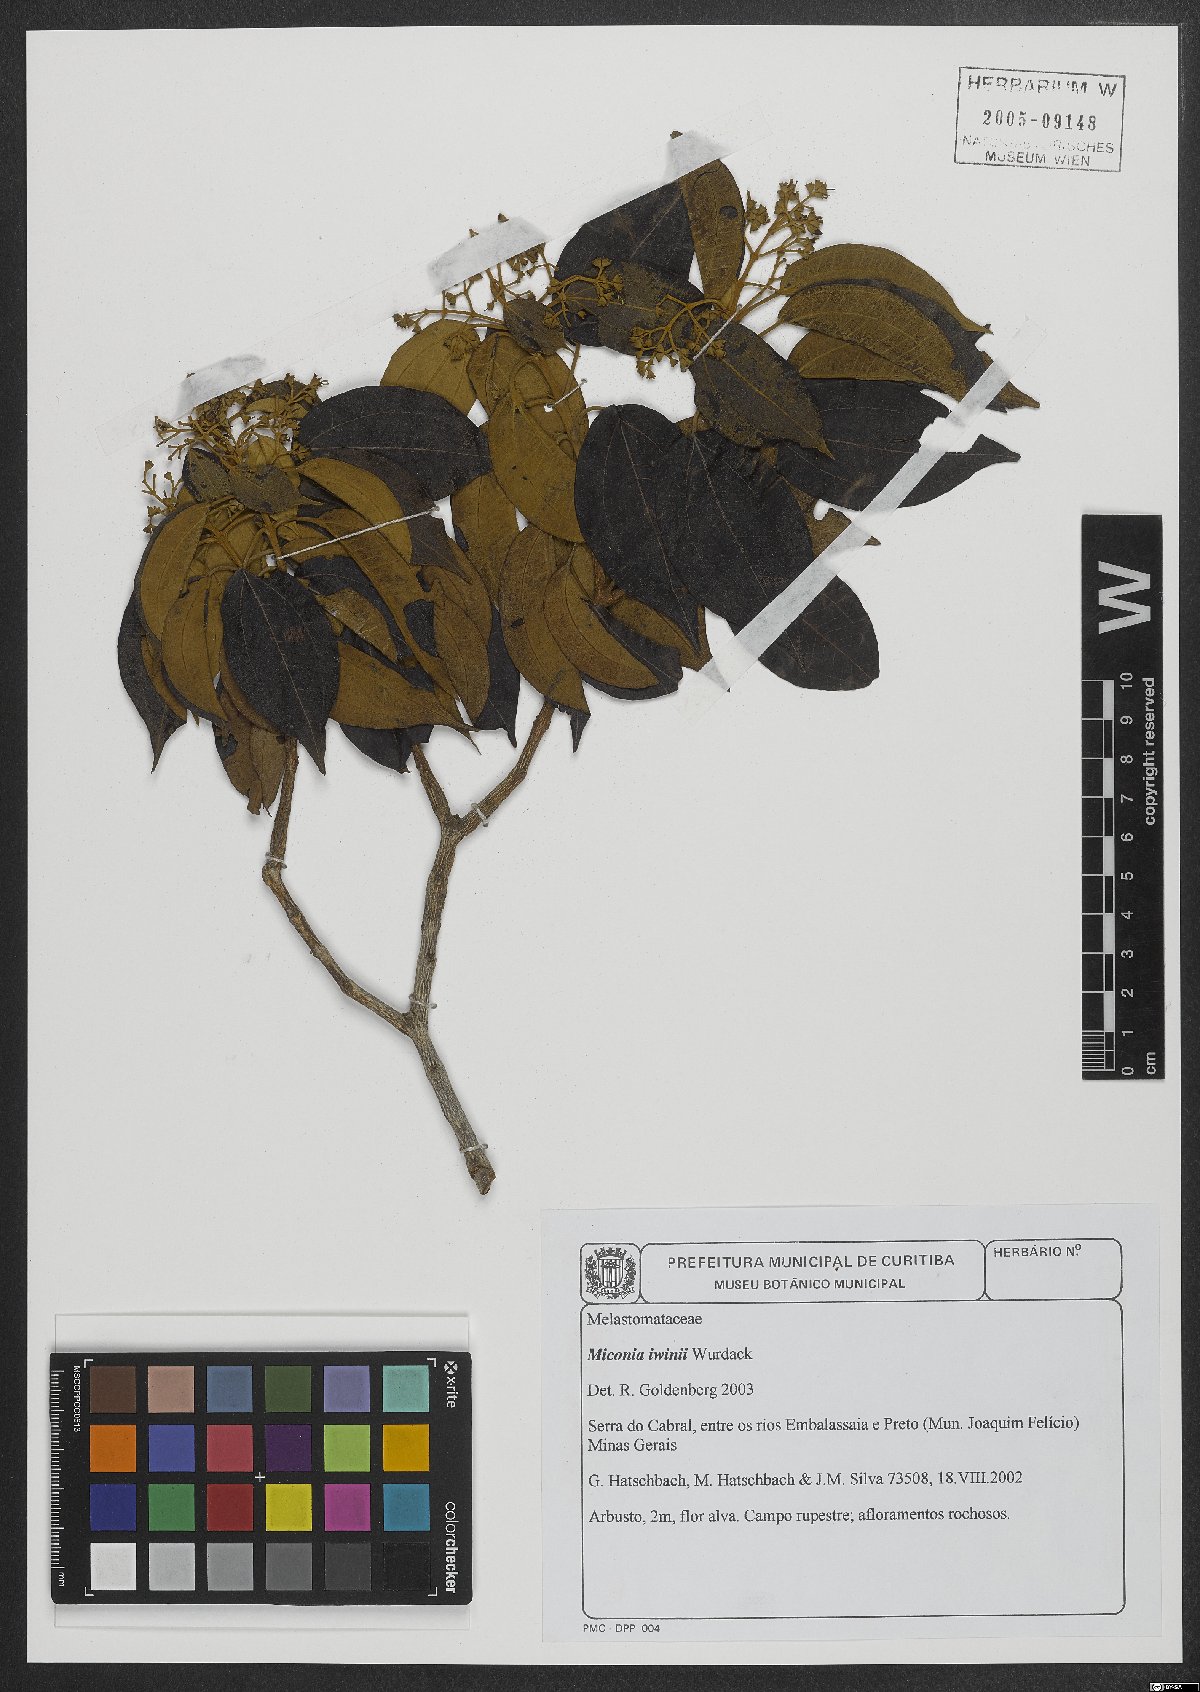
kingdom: Plantae
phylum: Tracheophyta
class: Magnoliopsida
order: Myrtales
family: Melastomataceae
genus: Miconia
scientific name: Miconia irwinii
